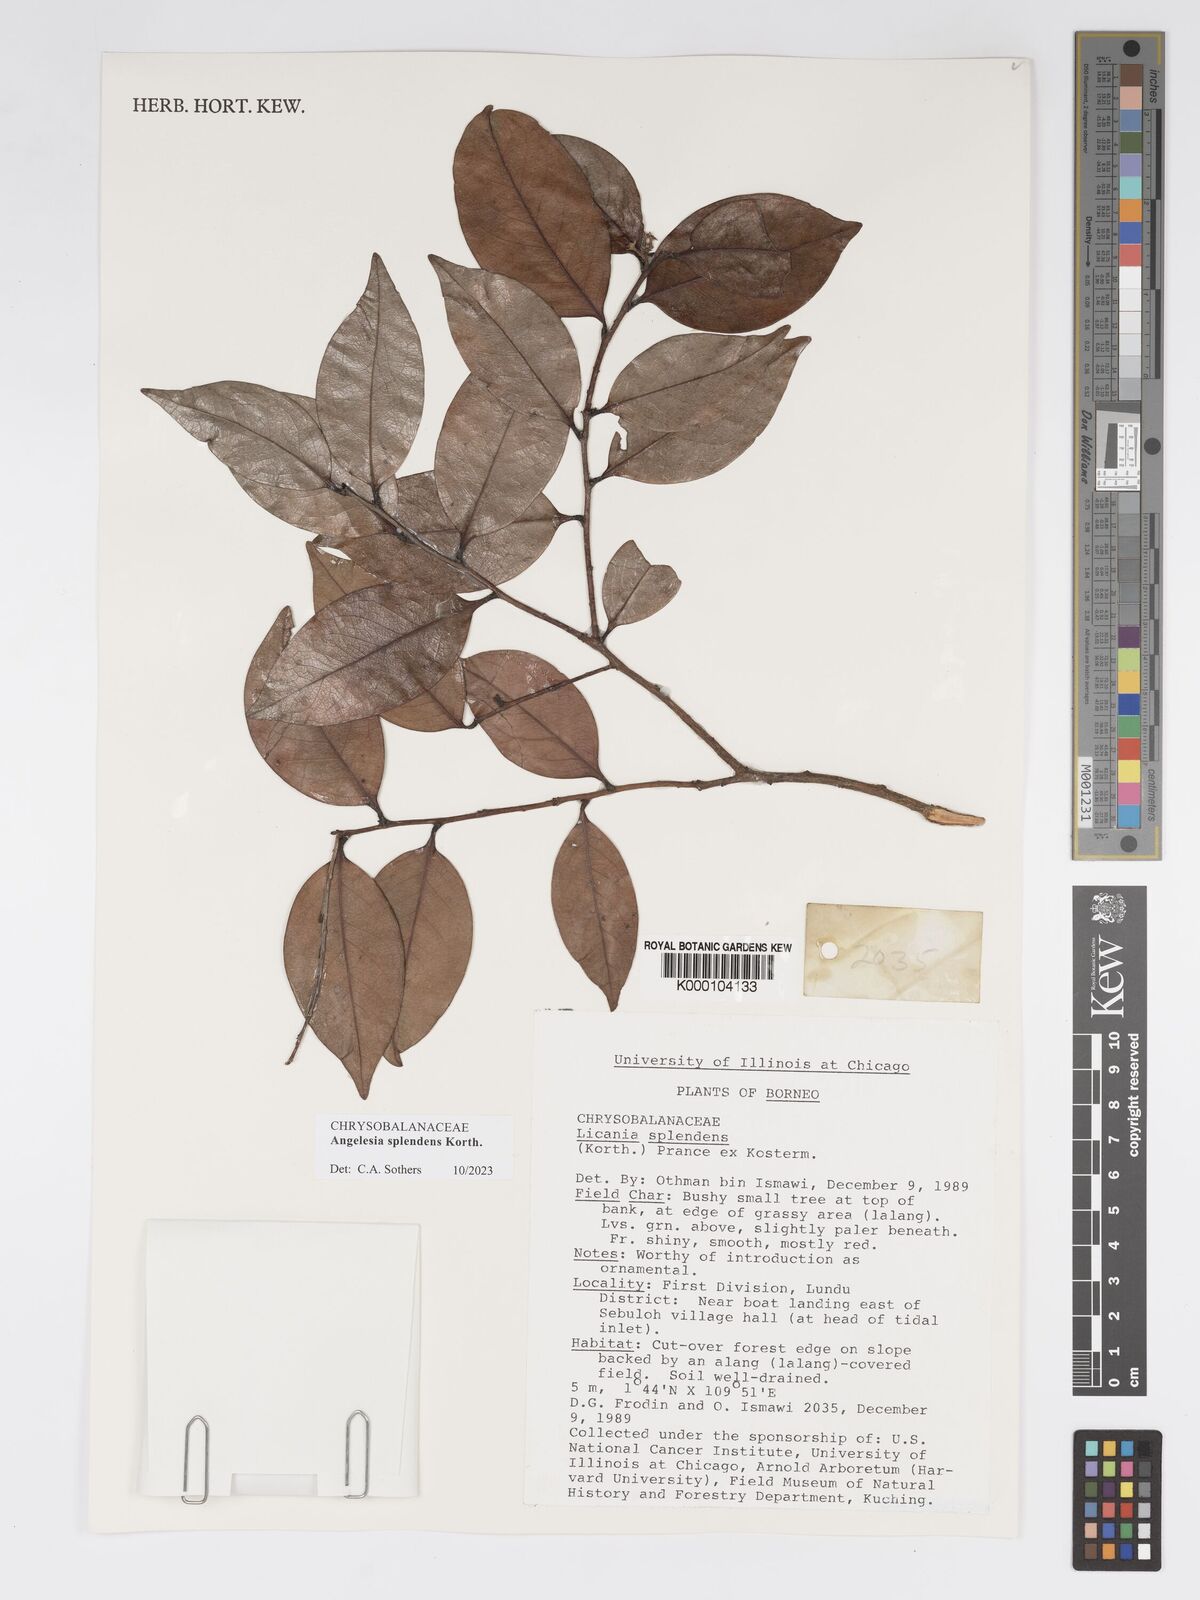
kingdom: Plantae
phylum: Tracheophyta
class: Magnoliopsida
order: Malpighiales
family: Chrysobalanaceae
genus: Angelesia
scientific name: Angelesia splendens
